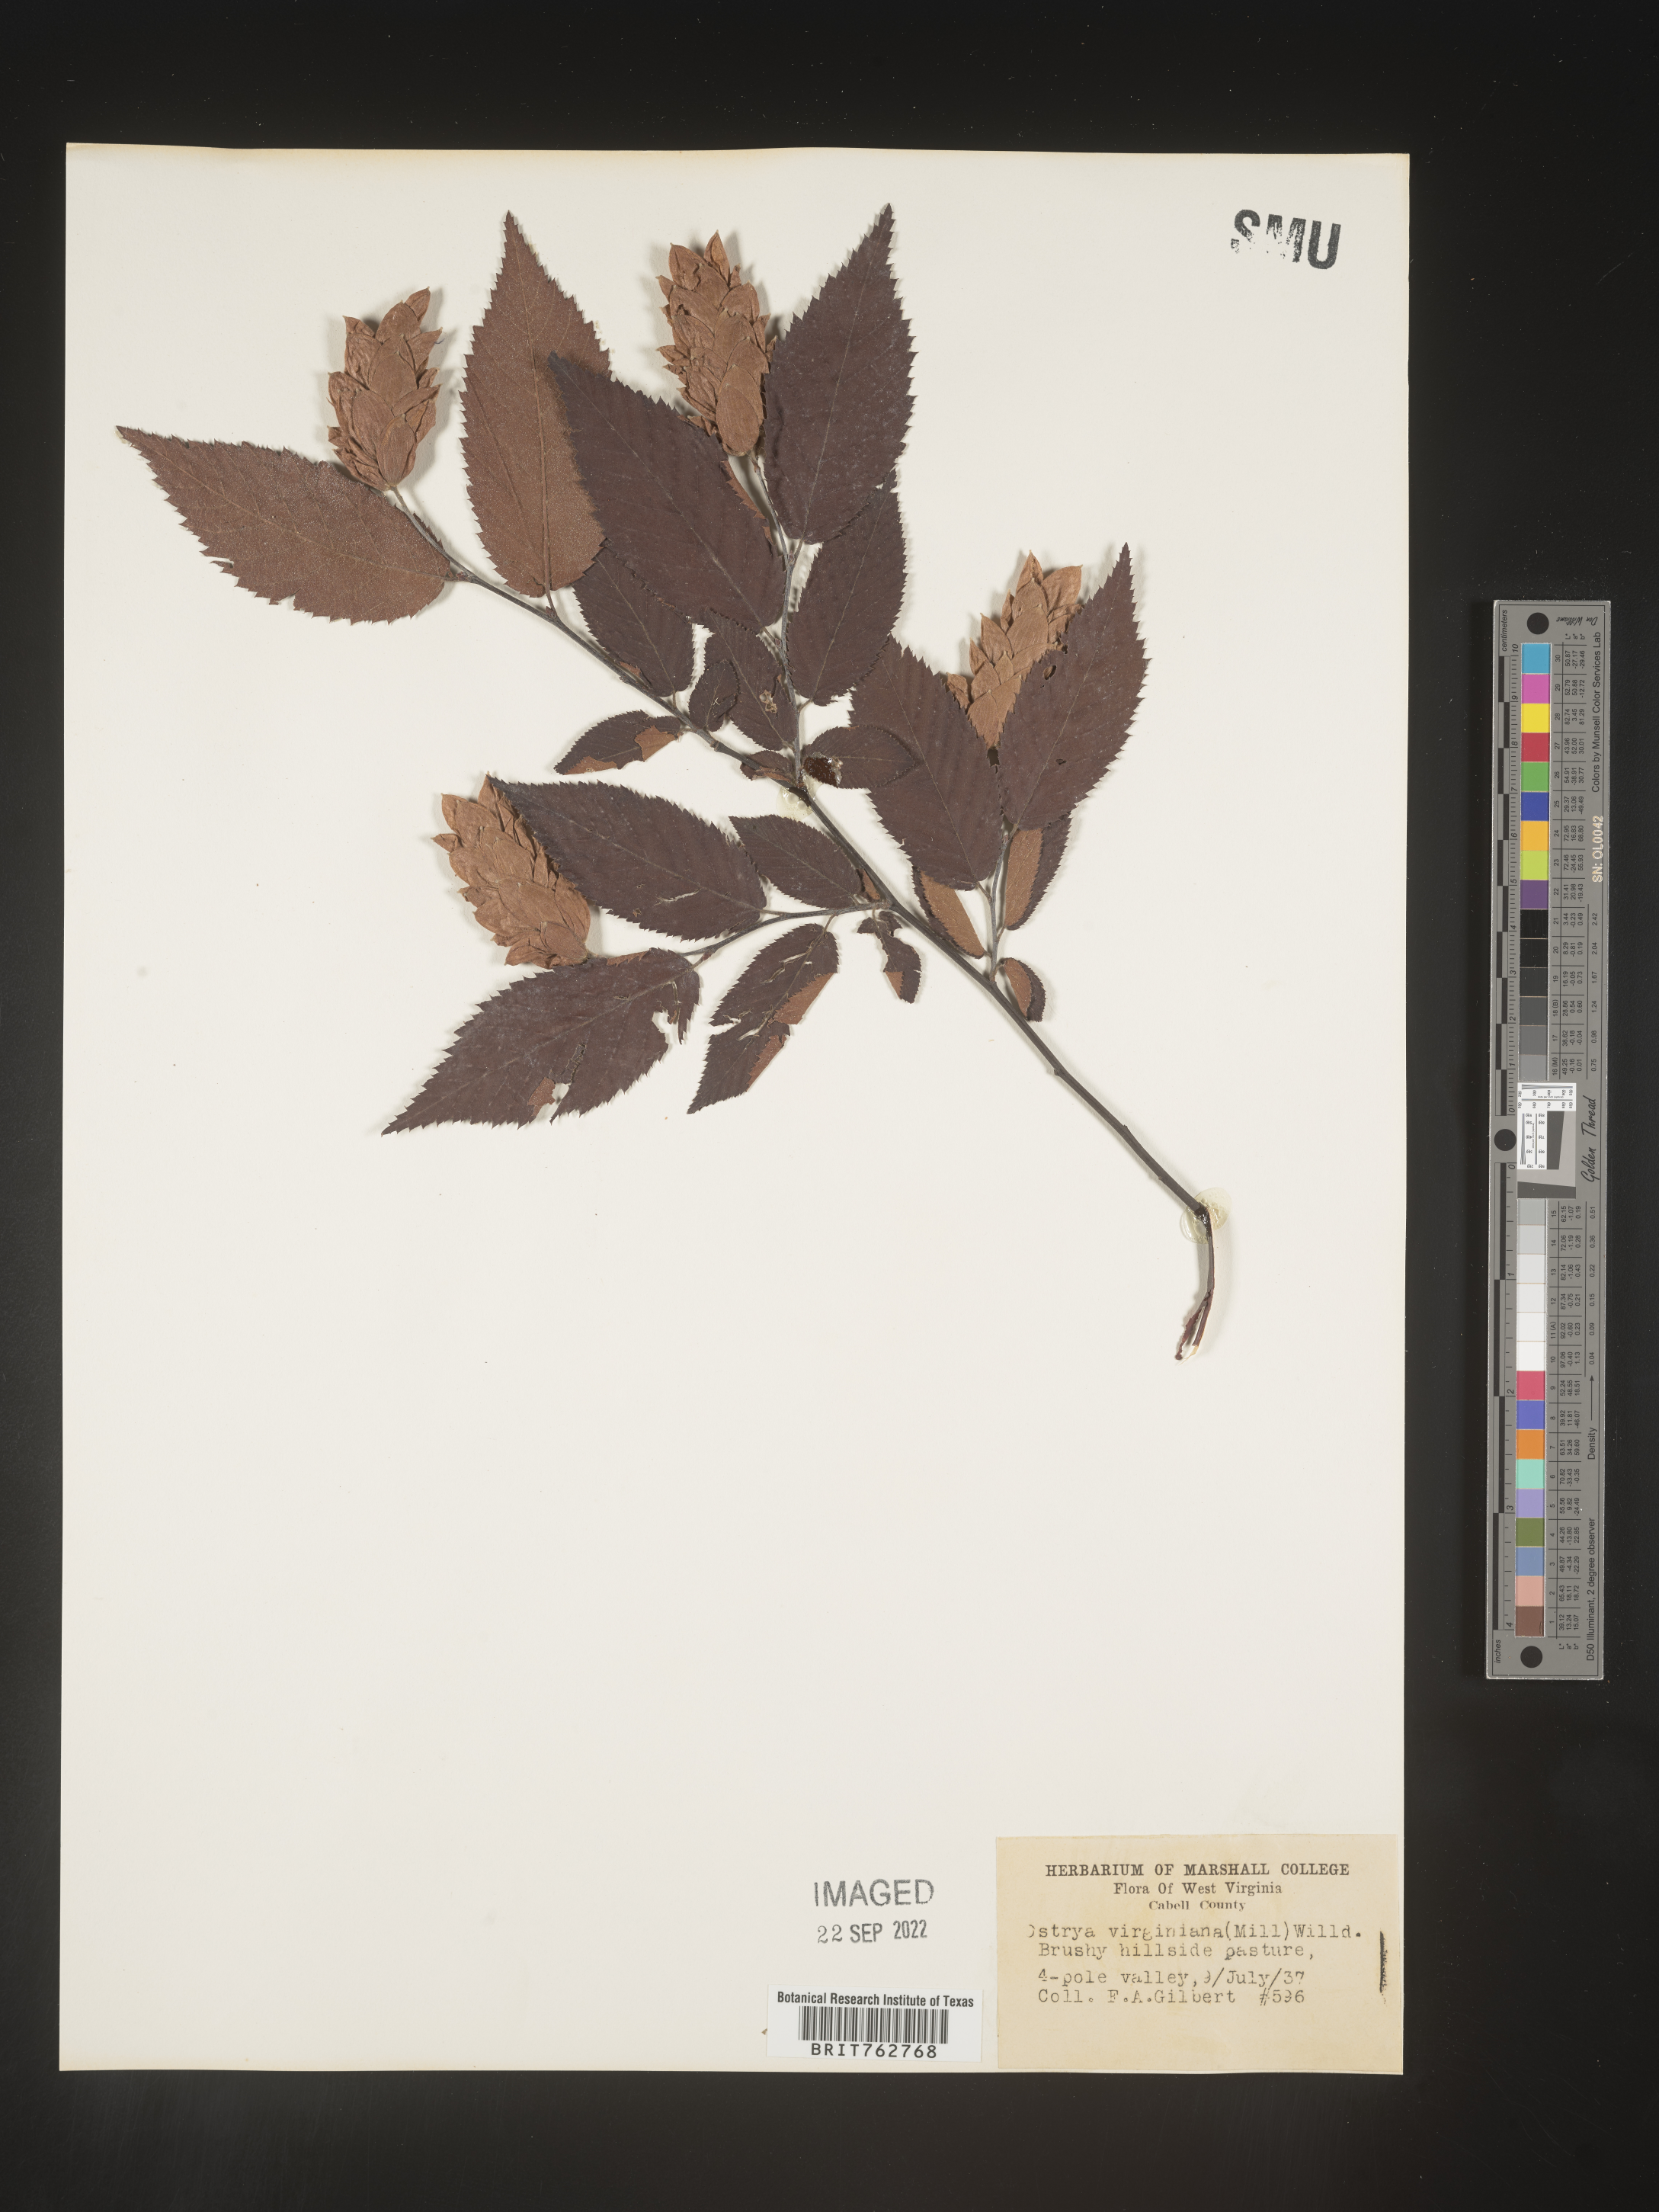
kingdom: Plantae
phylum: Tracheophyta
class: Magnoliopsida
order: Fagales
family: Betulaceae
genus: Ostrya
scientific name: Ostrya virginiana
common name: Ironwood
